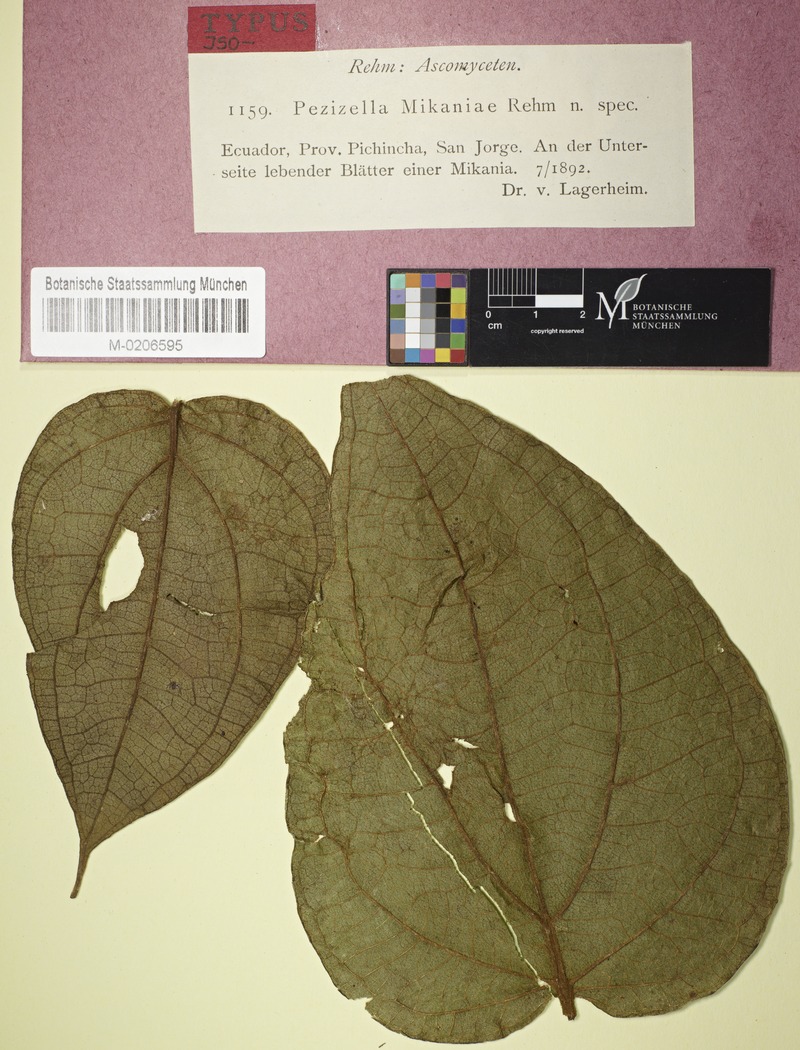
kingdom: Fungi
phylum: Ascomycota
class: Leotiomycetes
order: Helotiales
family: Pezizellaceae
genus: Pezizella
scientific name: Pezizella mikaniae
